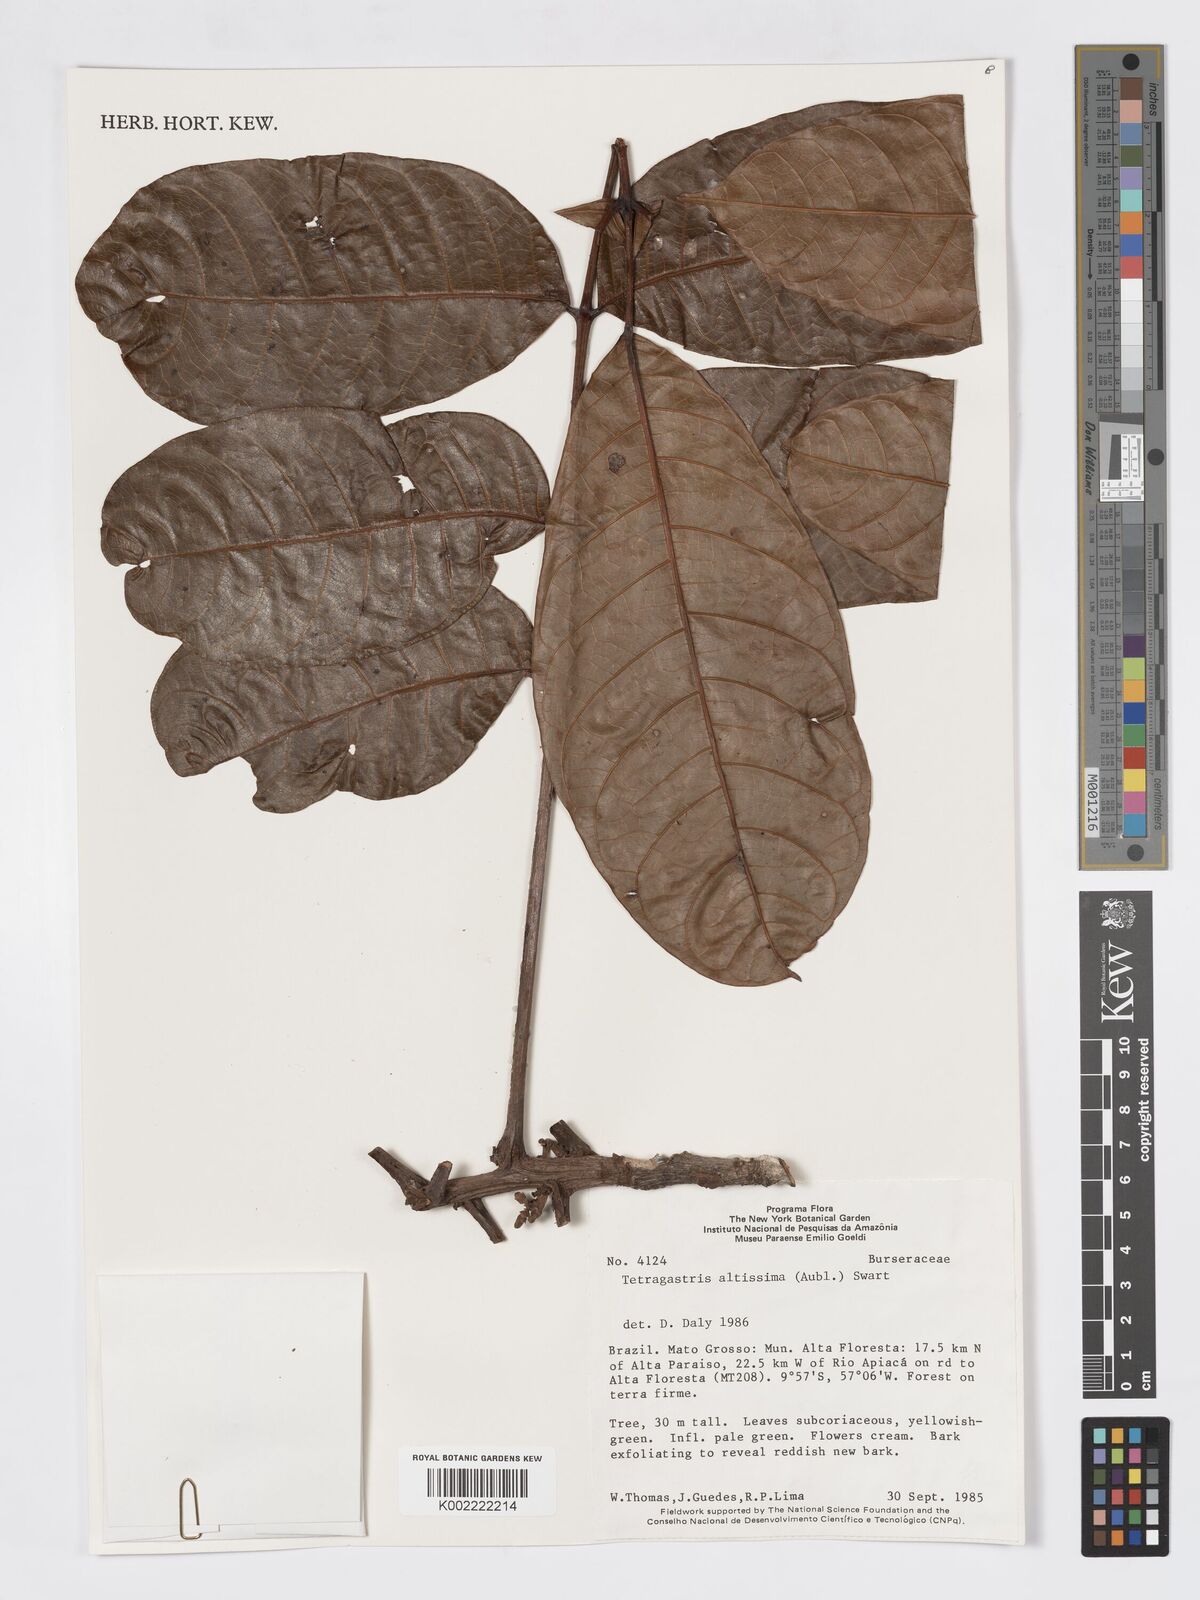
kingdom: Plantae
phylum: Tracheophyta
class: Magnoliopsida
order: Sapindales
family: Burseraceae
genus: Tetragastris
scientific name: Tetragastris altissima
